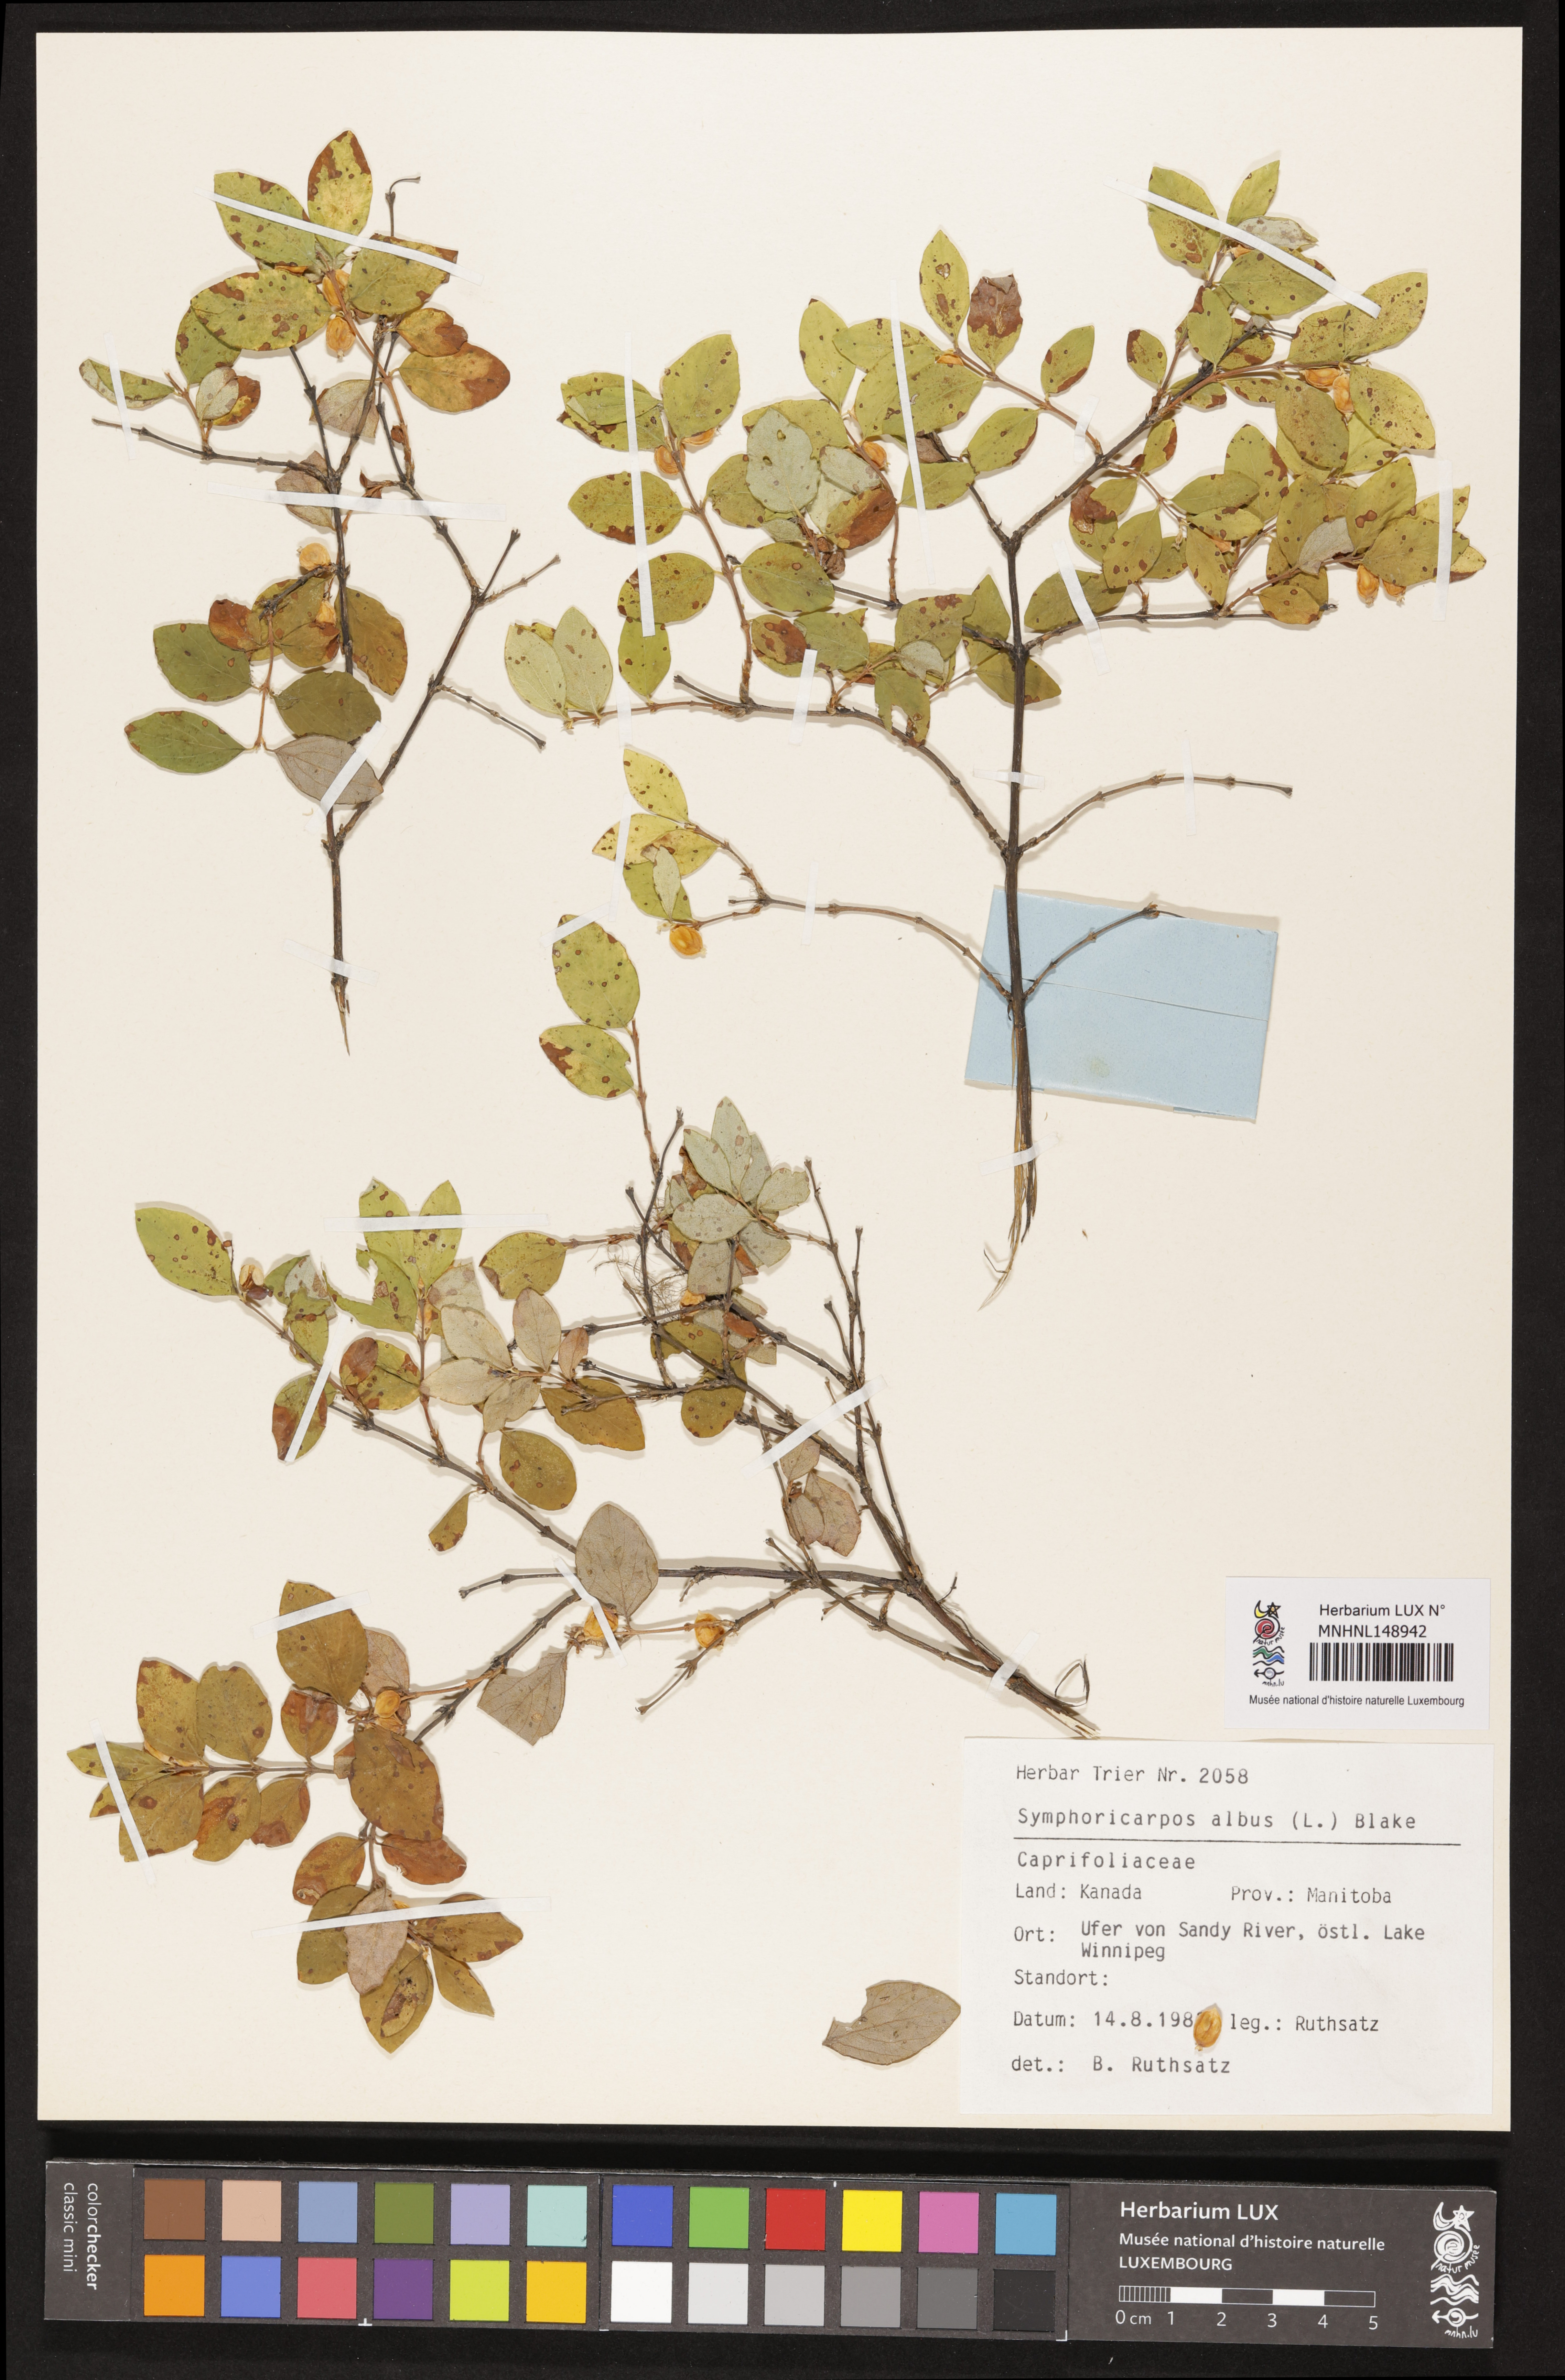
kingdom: Plantae
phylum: Tracheophyta
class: Magnoliopsida
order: Dipsacales
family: Caprifoliaceae
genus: Symphoricarpos
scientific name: Symphoricarpos albus
